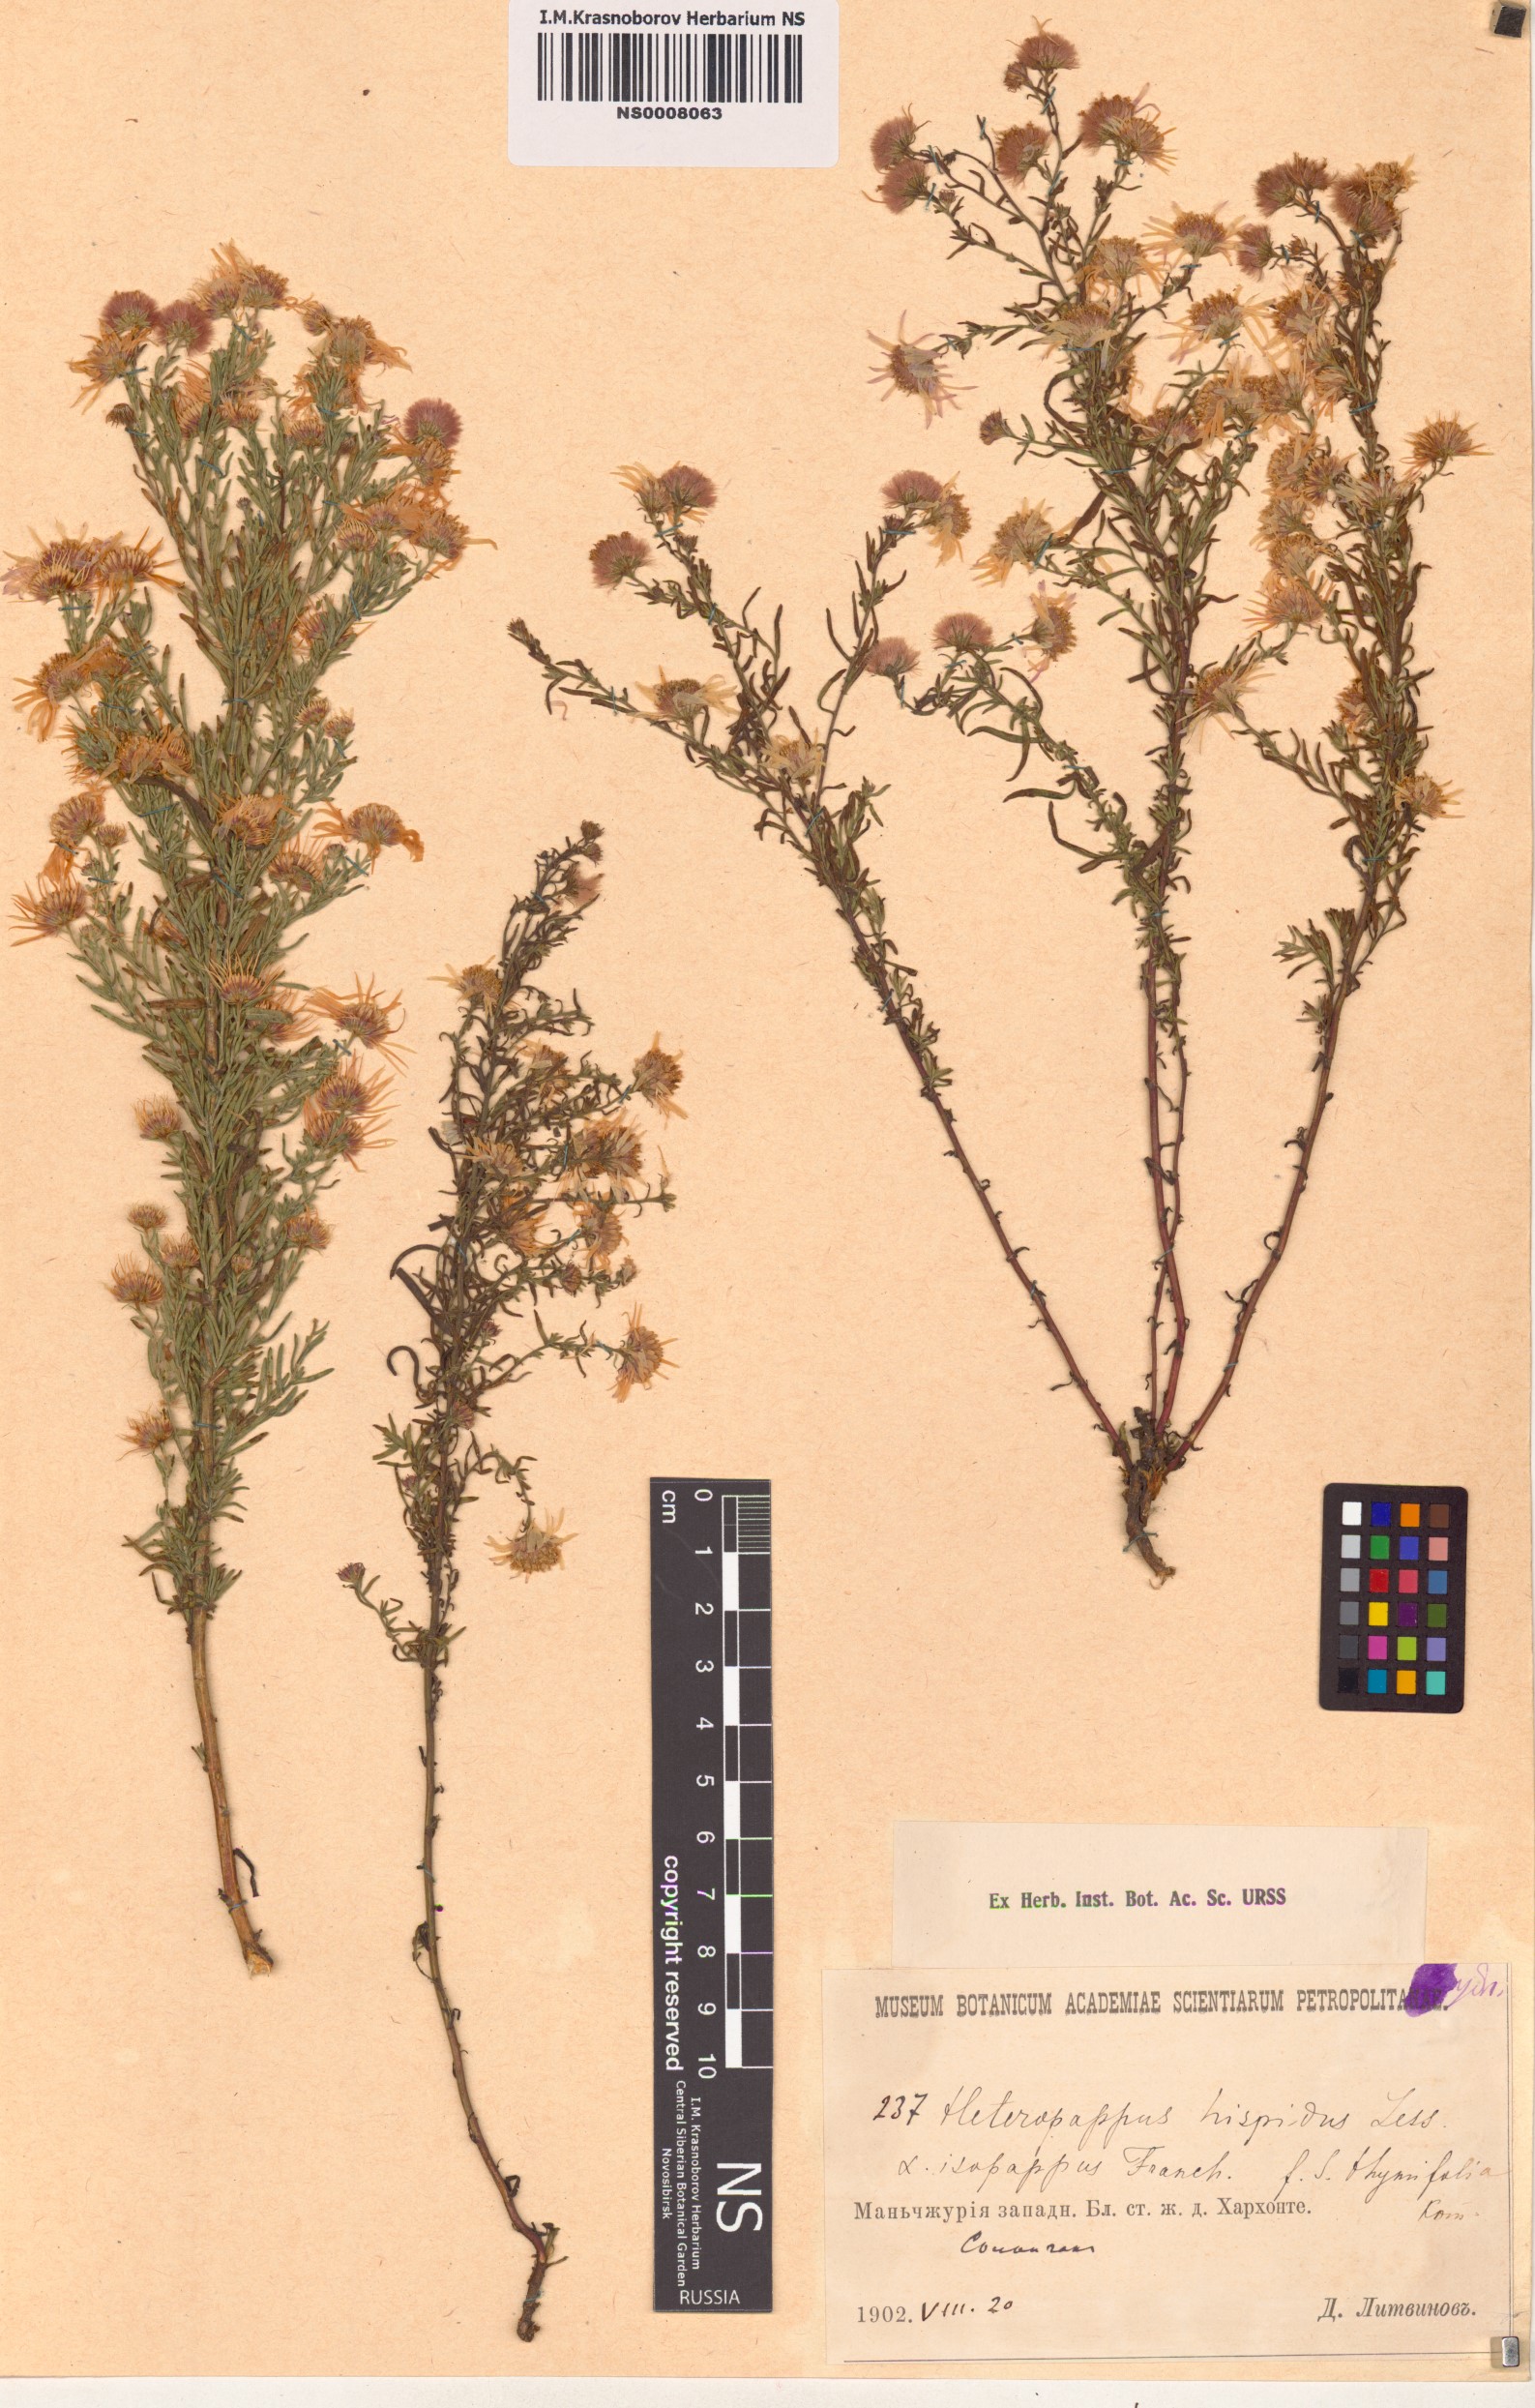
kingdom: Plantae
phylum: Tracheophyta
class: Magnoliopsida
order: Asterales
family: Asteraceae
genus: Heteropappus
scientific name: Heteropappus hispidus
